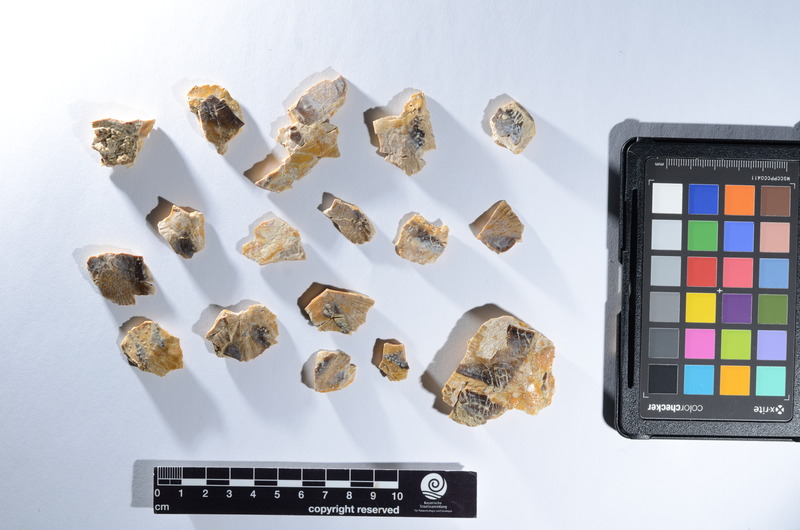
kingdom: Animalia
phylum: Chordata
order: Lepisosteiformes
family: Lepidotidae
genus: Lepidotes
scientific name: Lepidotes
